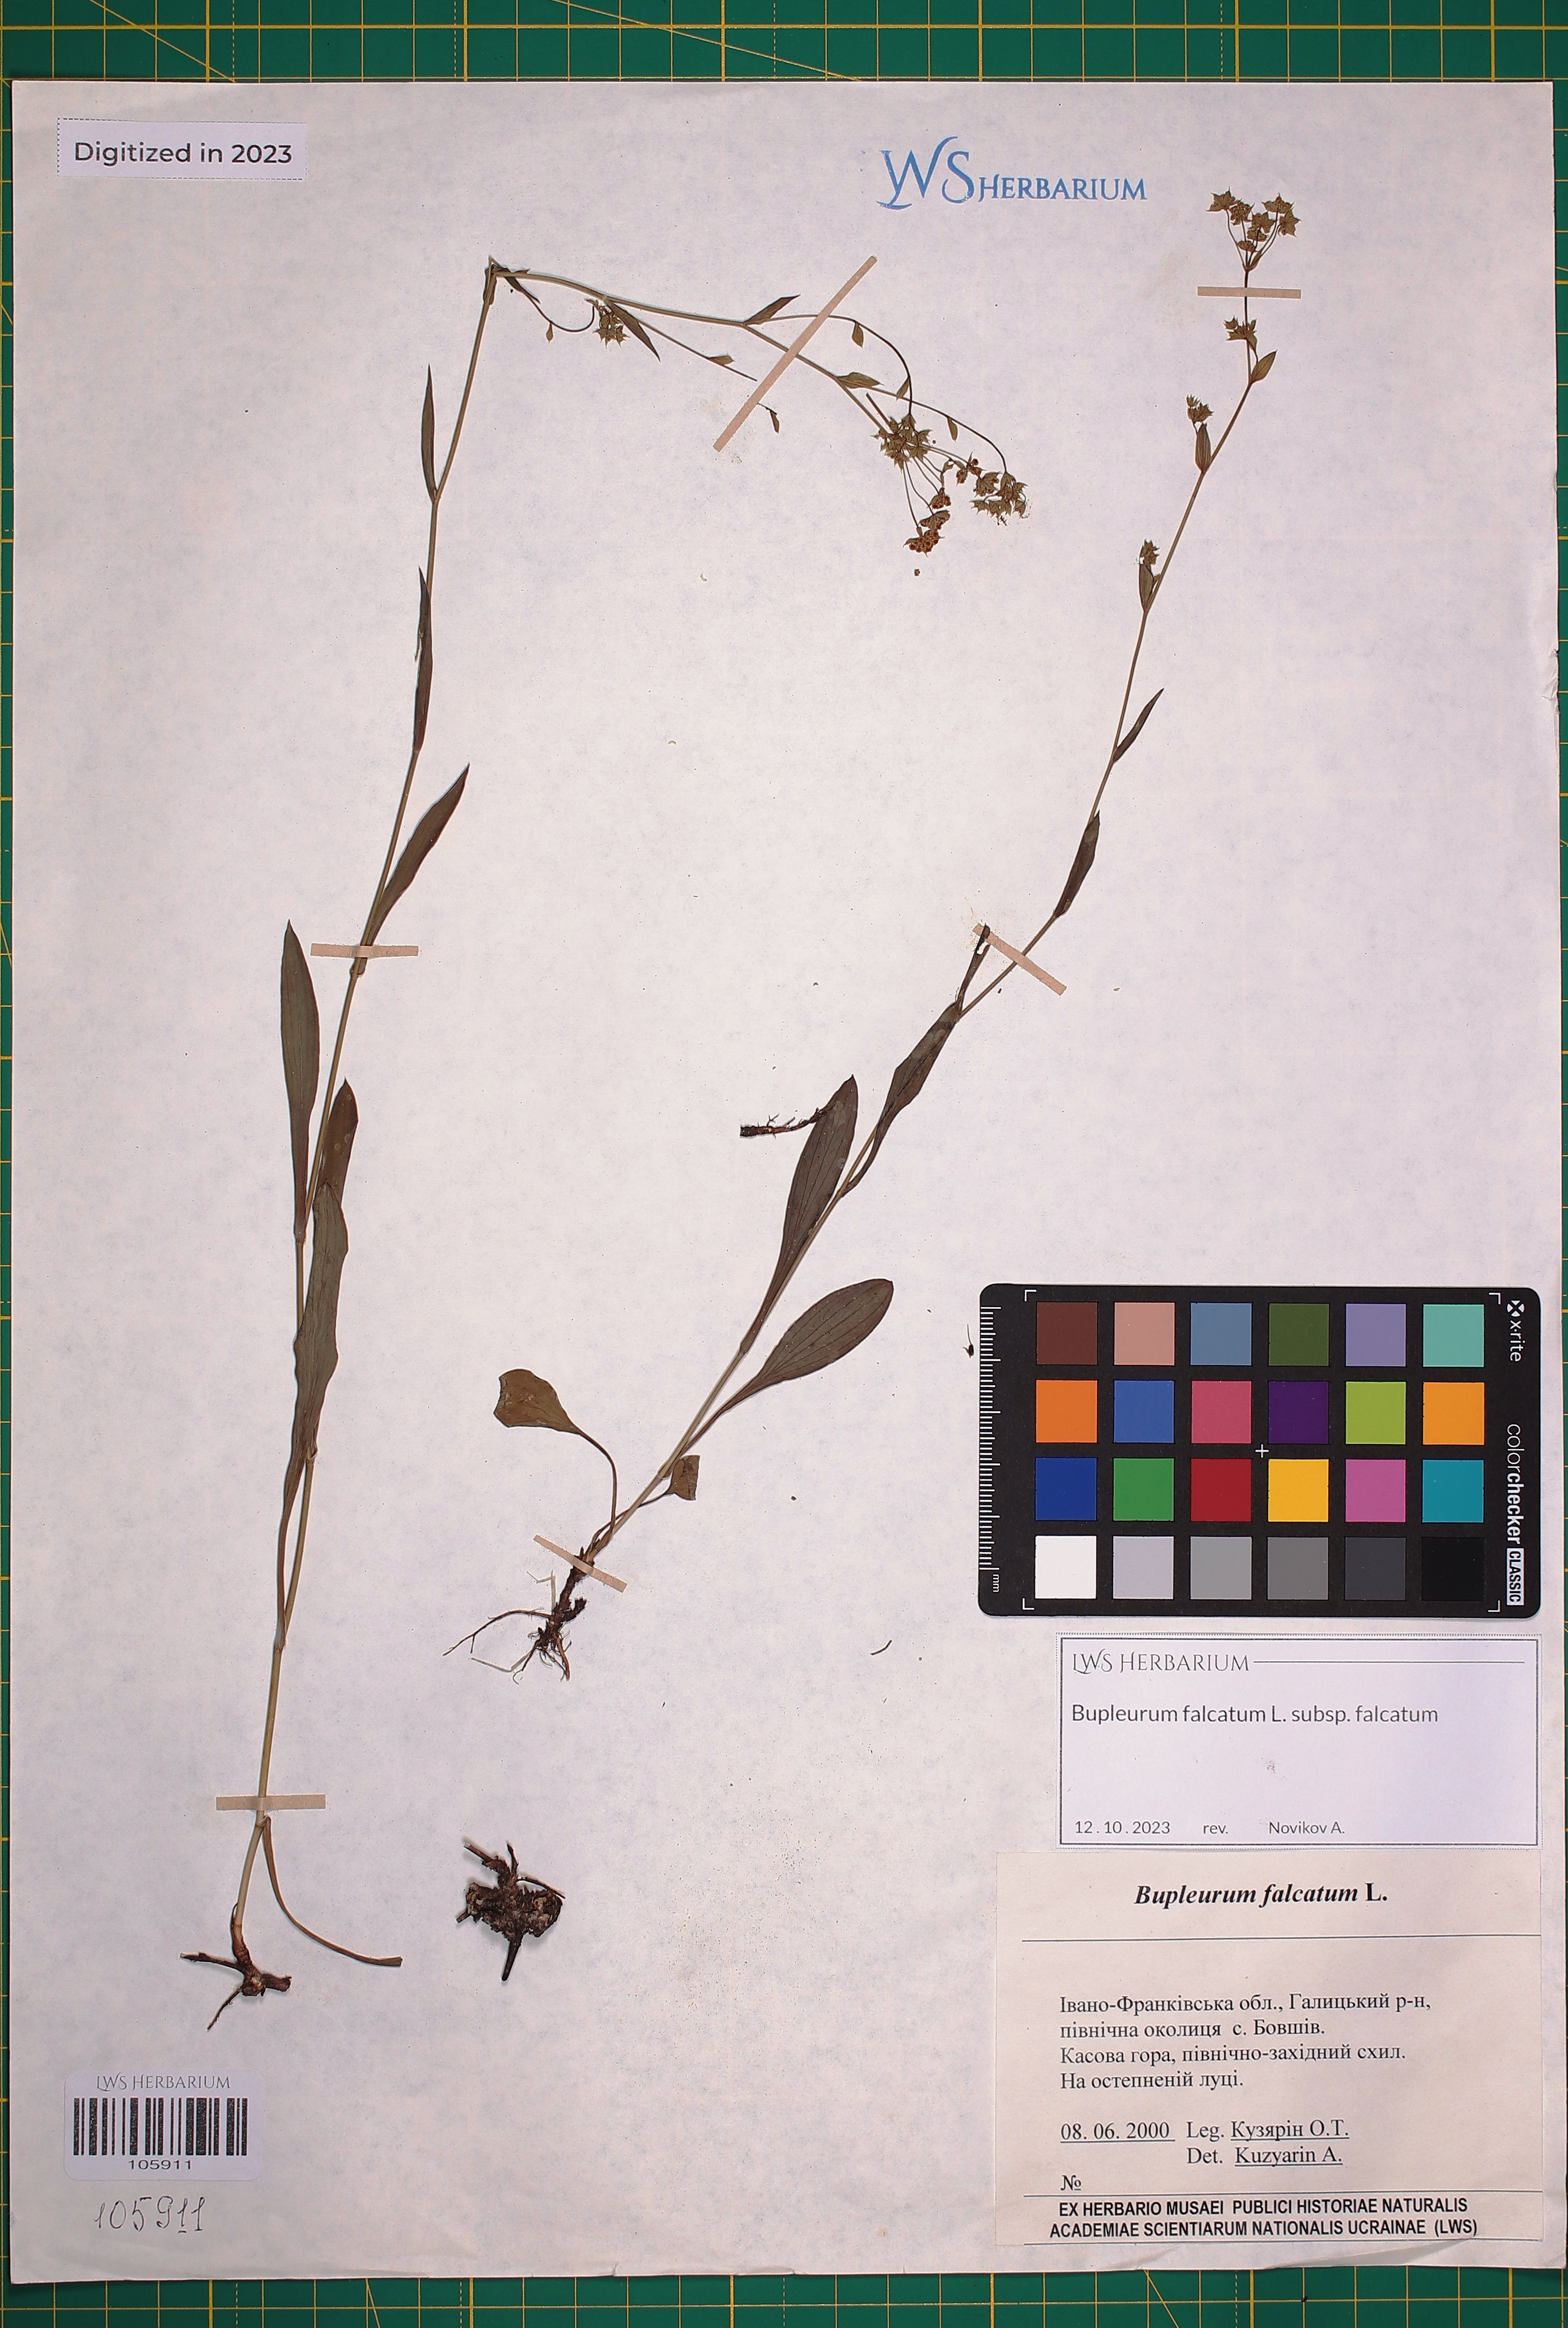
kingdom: Plantae
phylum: Tracheophyta
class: Magnoliopsida
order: Apiales
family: Apiaceae
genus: Bupleurum
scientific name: Bupleurum falcatum
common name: Sickle-leaved hare's-ear
